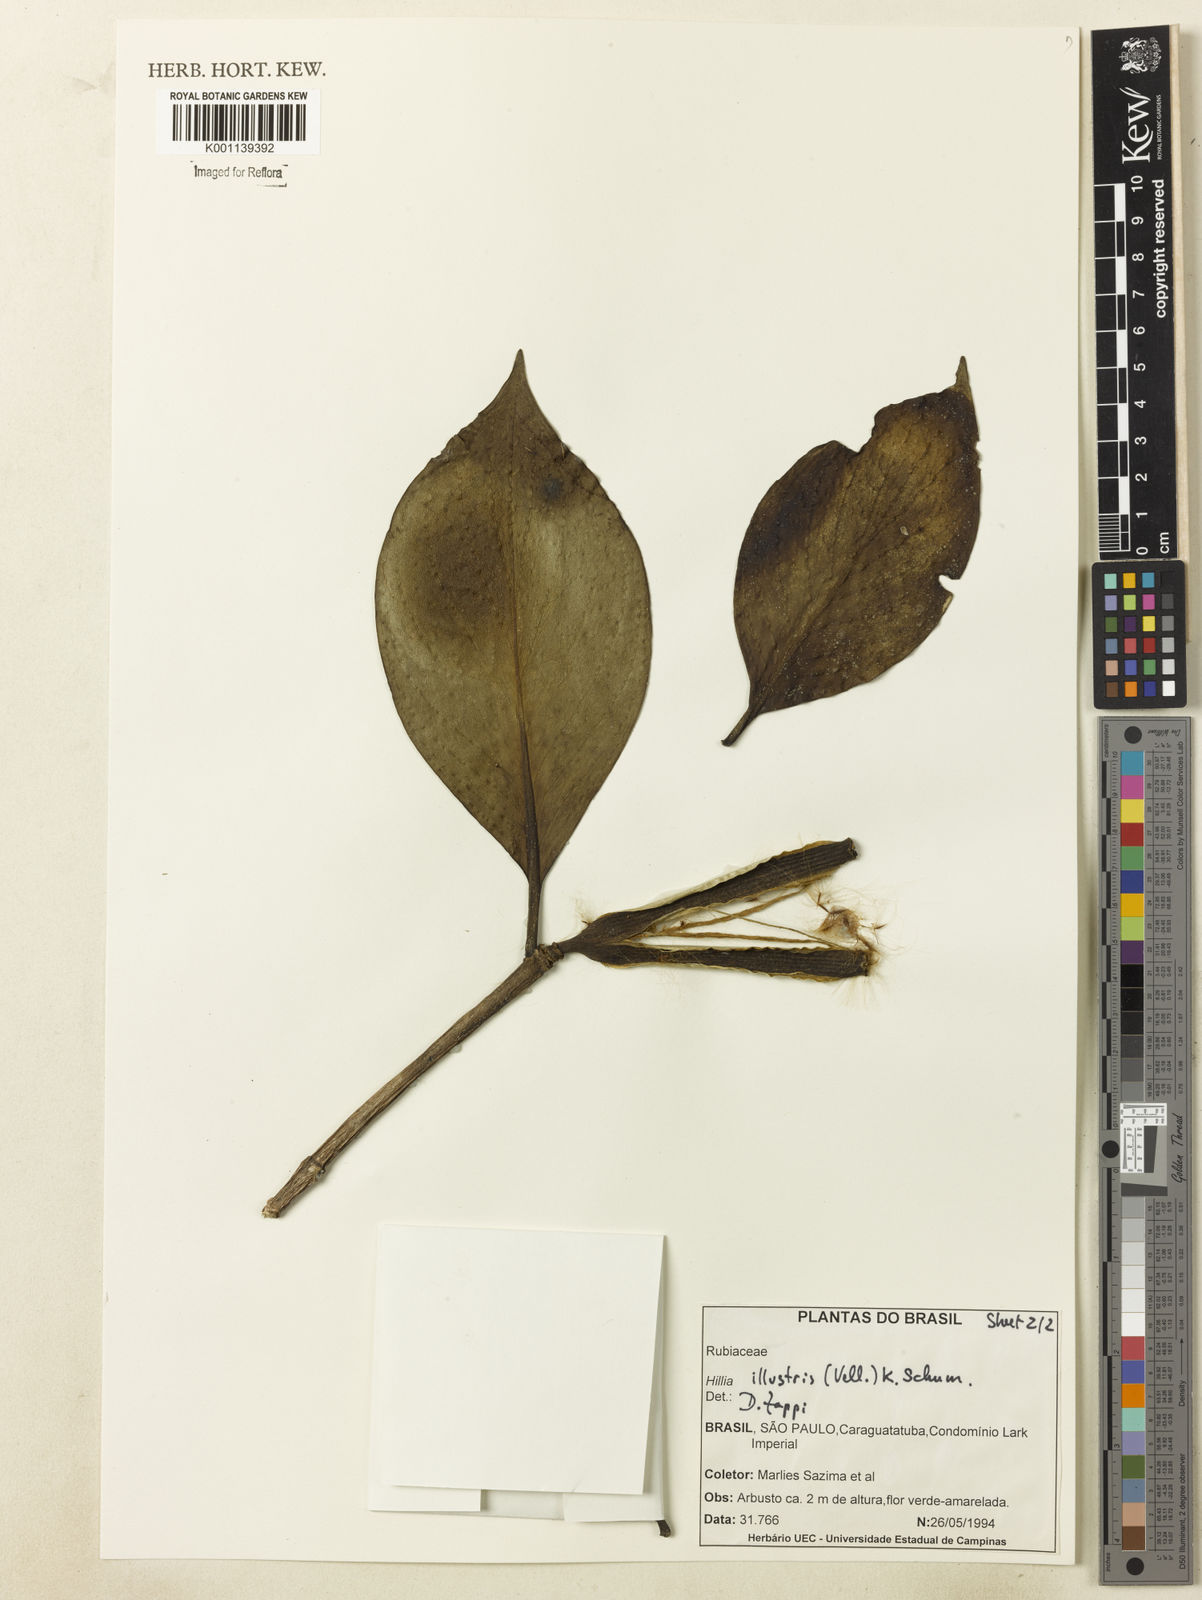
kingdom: Plantae
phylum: Tracheophyta
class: Magnoliopsida
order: Gentianales
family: Rubiaceae
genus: Hillia
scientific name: Hillia illustris
